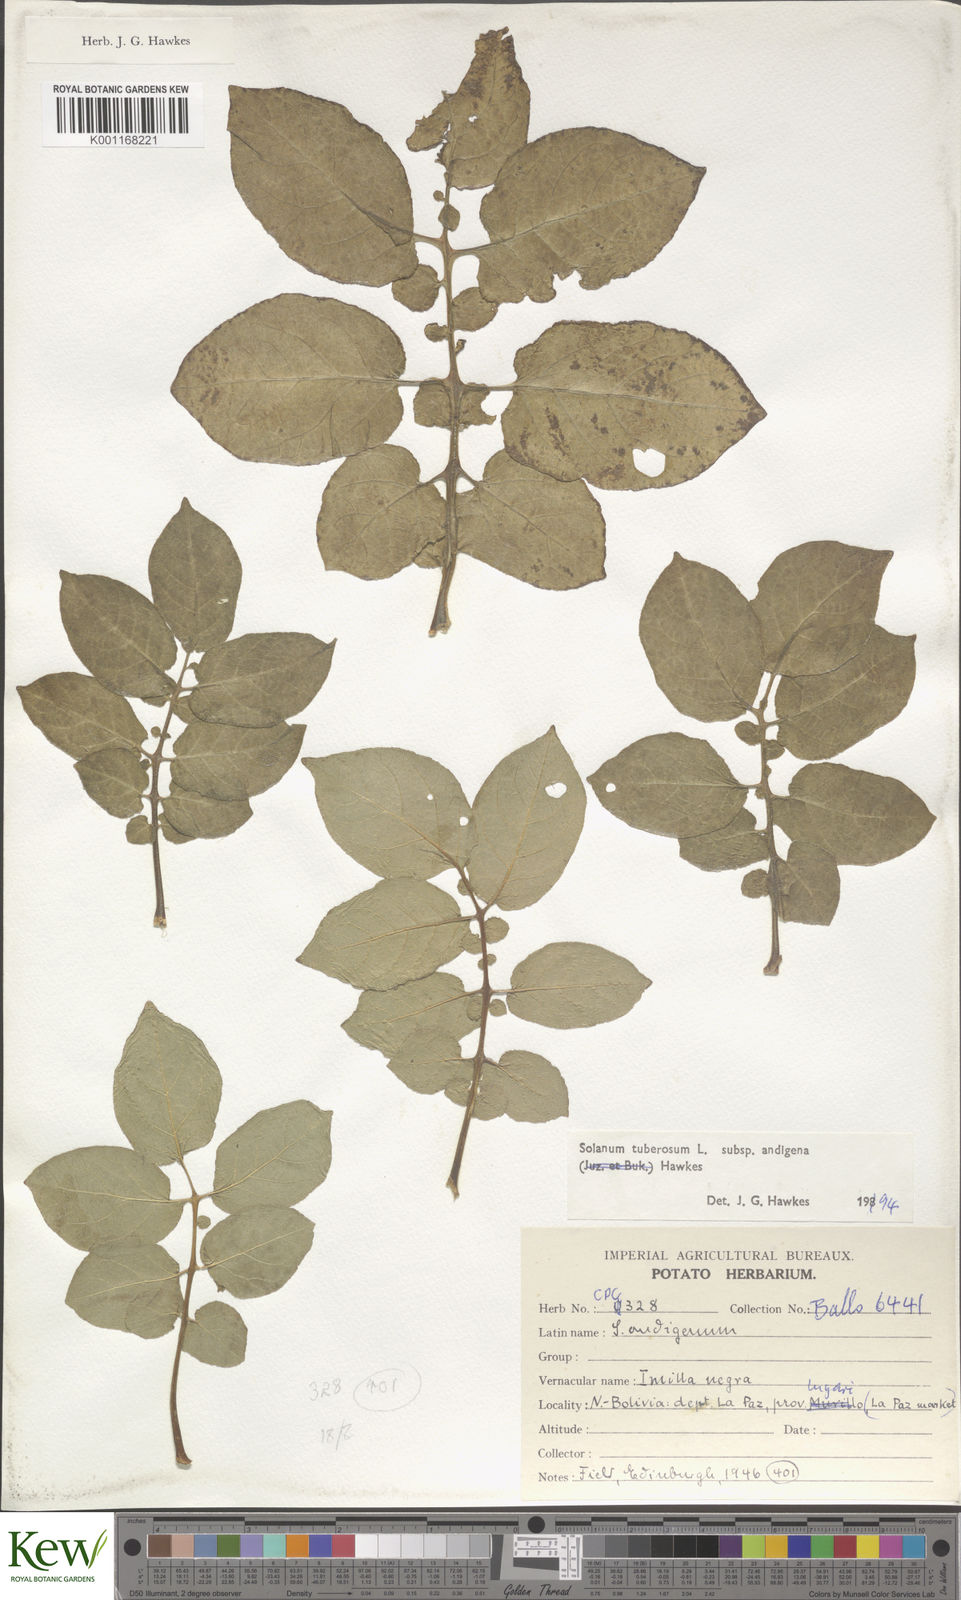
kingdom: Plantae
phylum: Tracheophyta
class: Magnoliopsida
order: Solanales
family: Solanaceae
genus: Solanum
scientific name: Solanum tuberosum
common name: Potato
